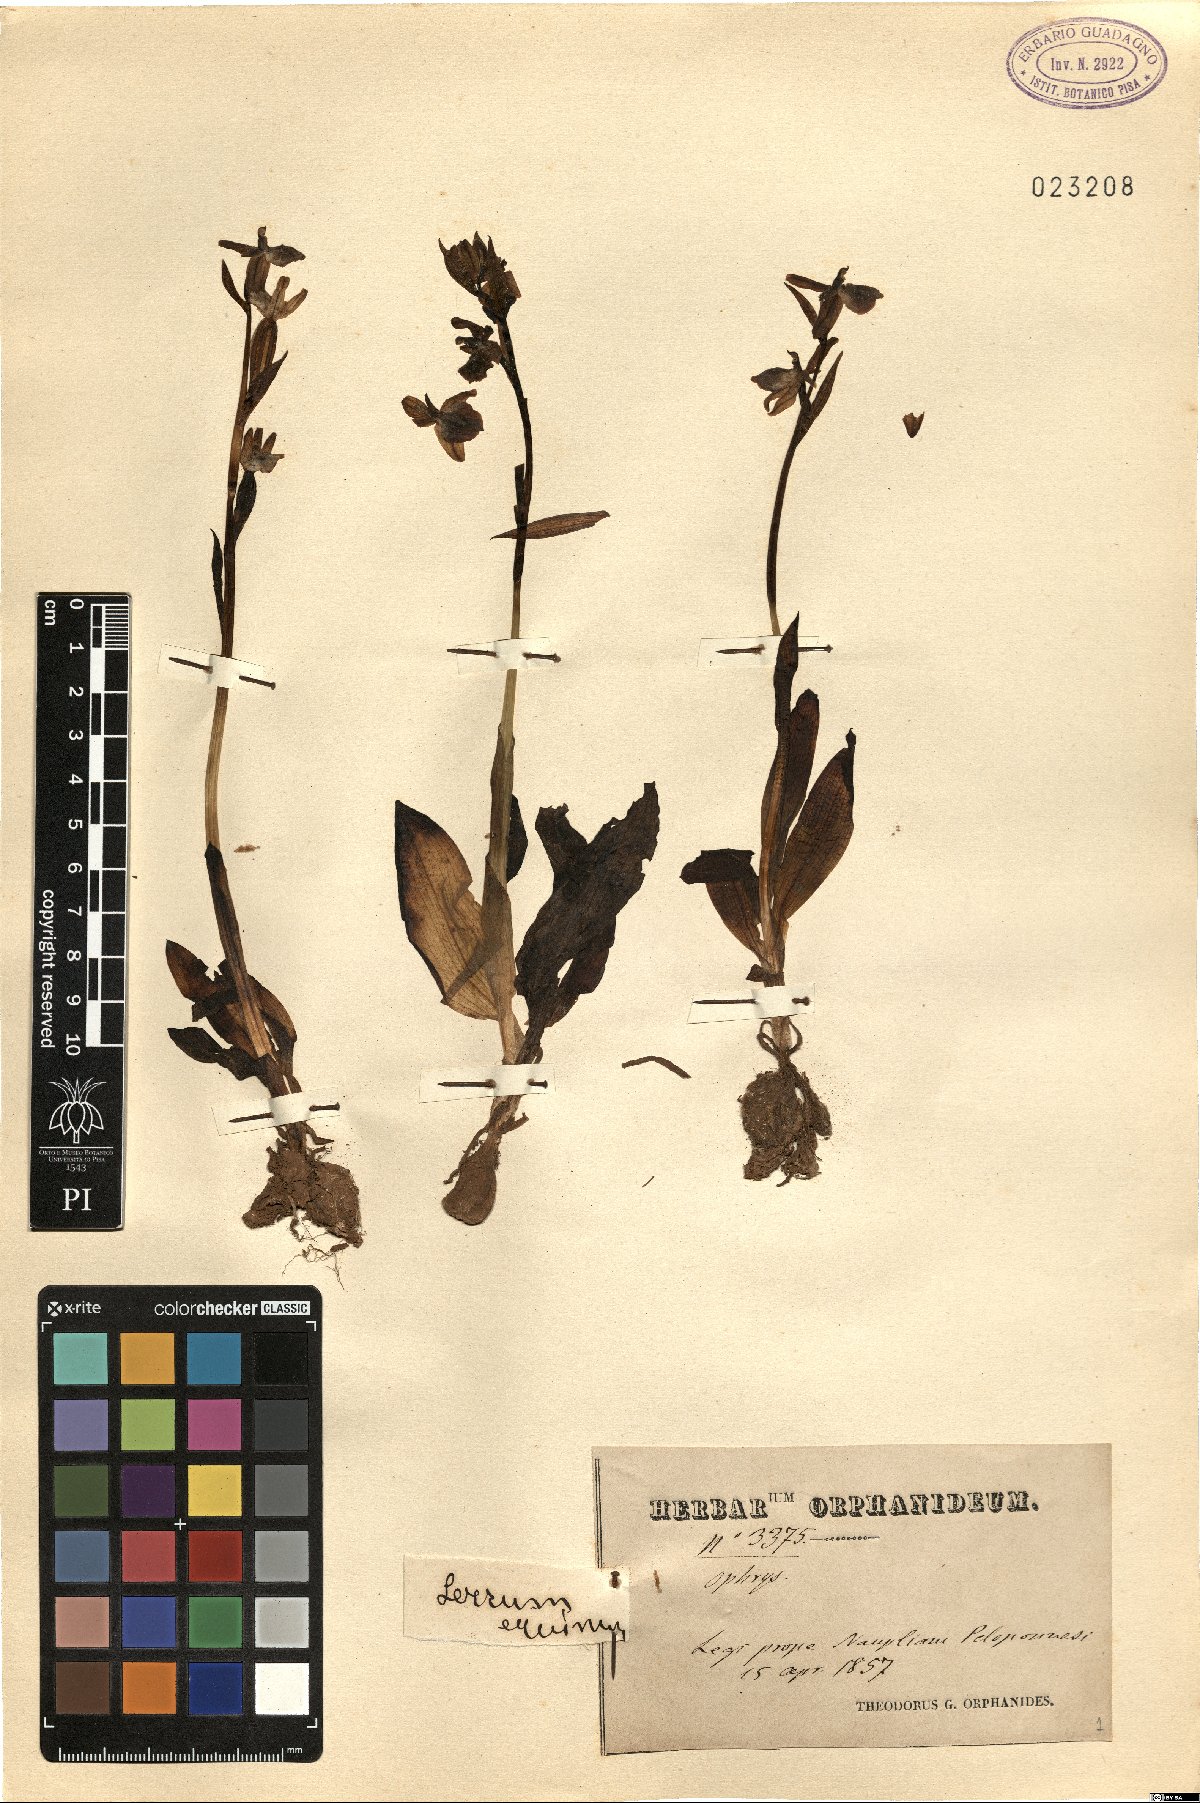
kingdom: Plantae
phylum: Tracheophyta
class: Liliopsida
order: Asparagales
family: Orchidaceae
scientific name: Orchidaceae
